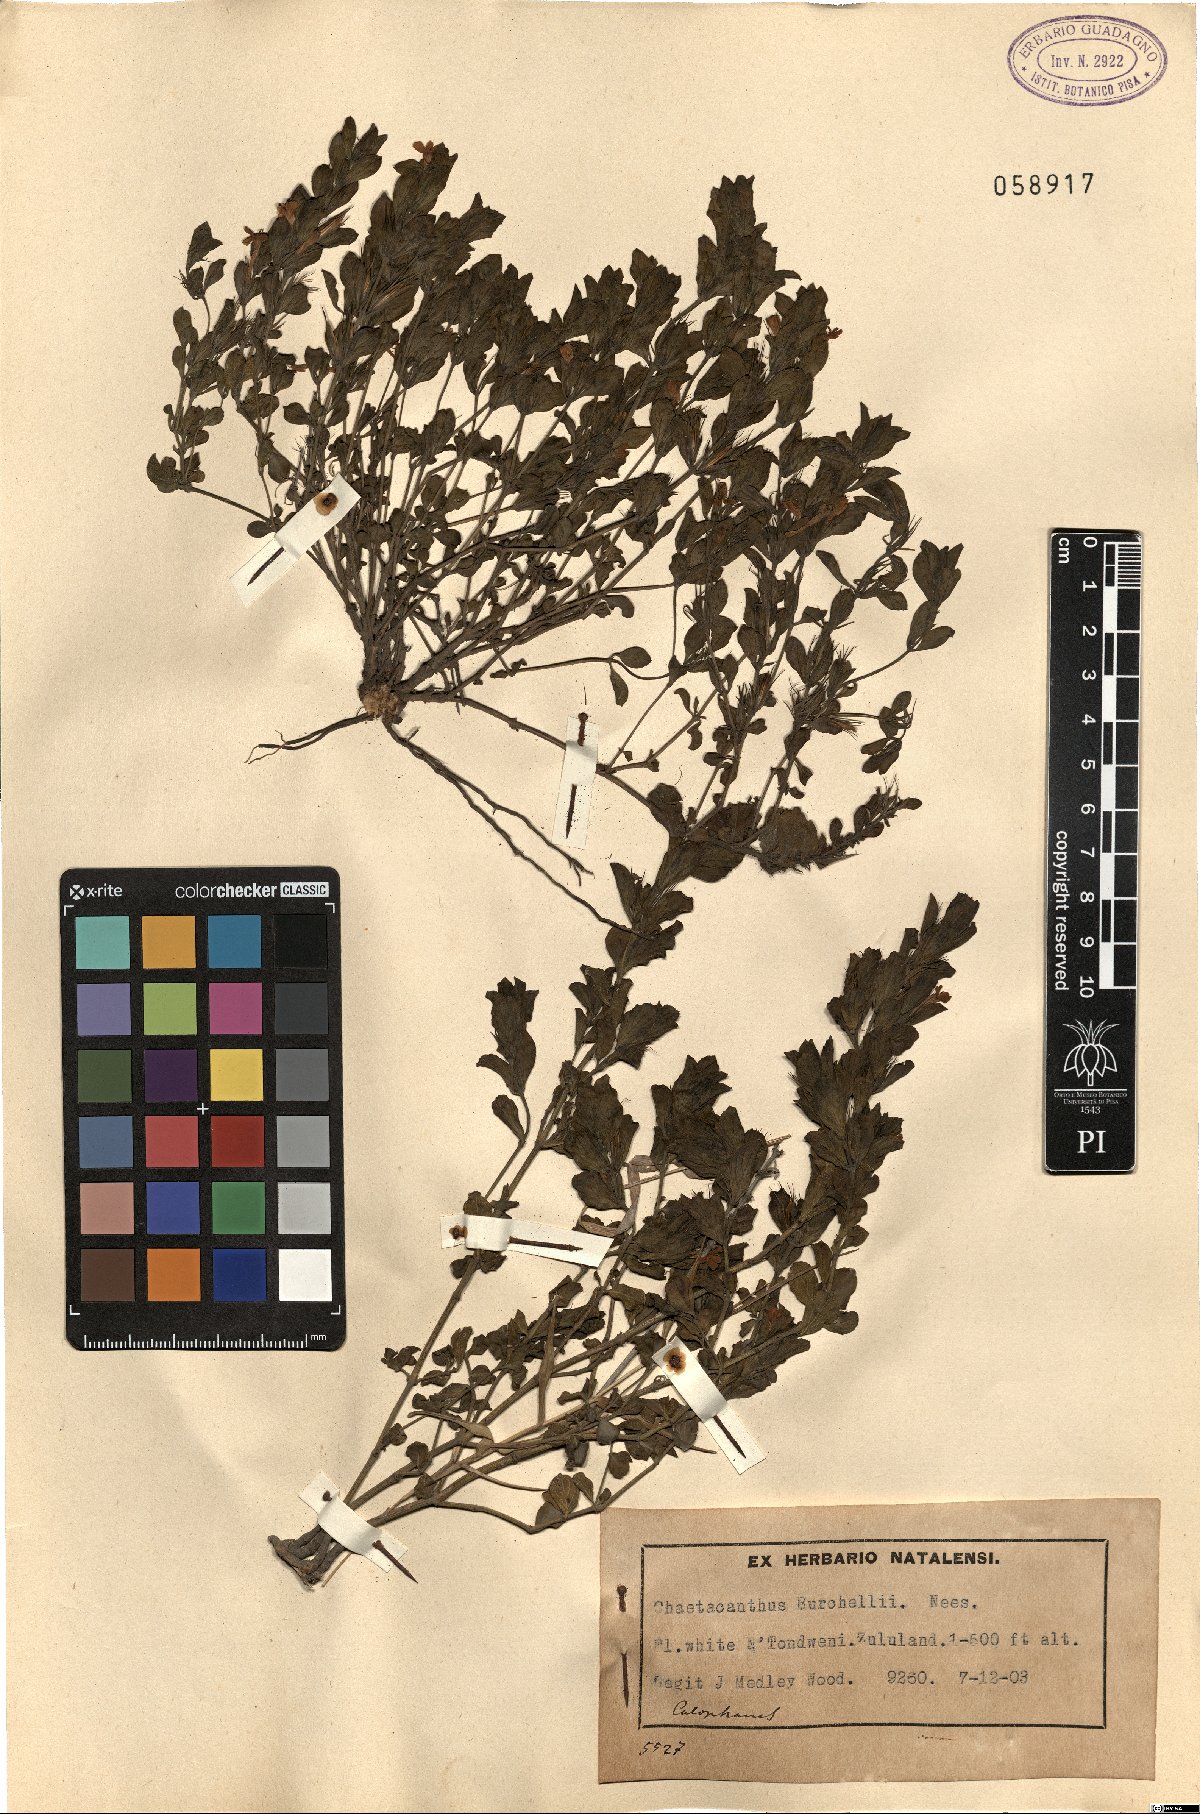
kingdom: Plantae
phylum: Tracheophyta
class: Magnoliopsida
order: Lamiales
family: Acanthaceae
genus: Dyschoriste
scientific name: Dyschoriste radicans
